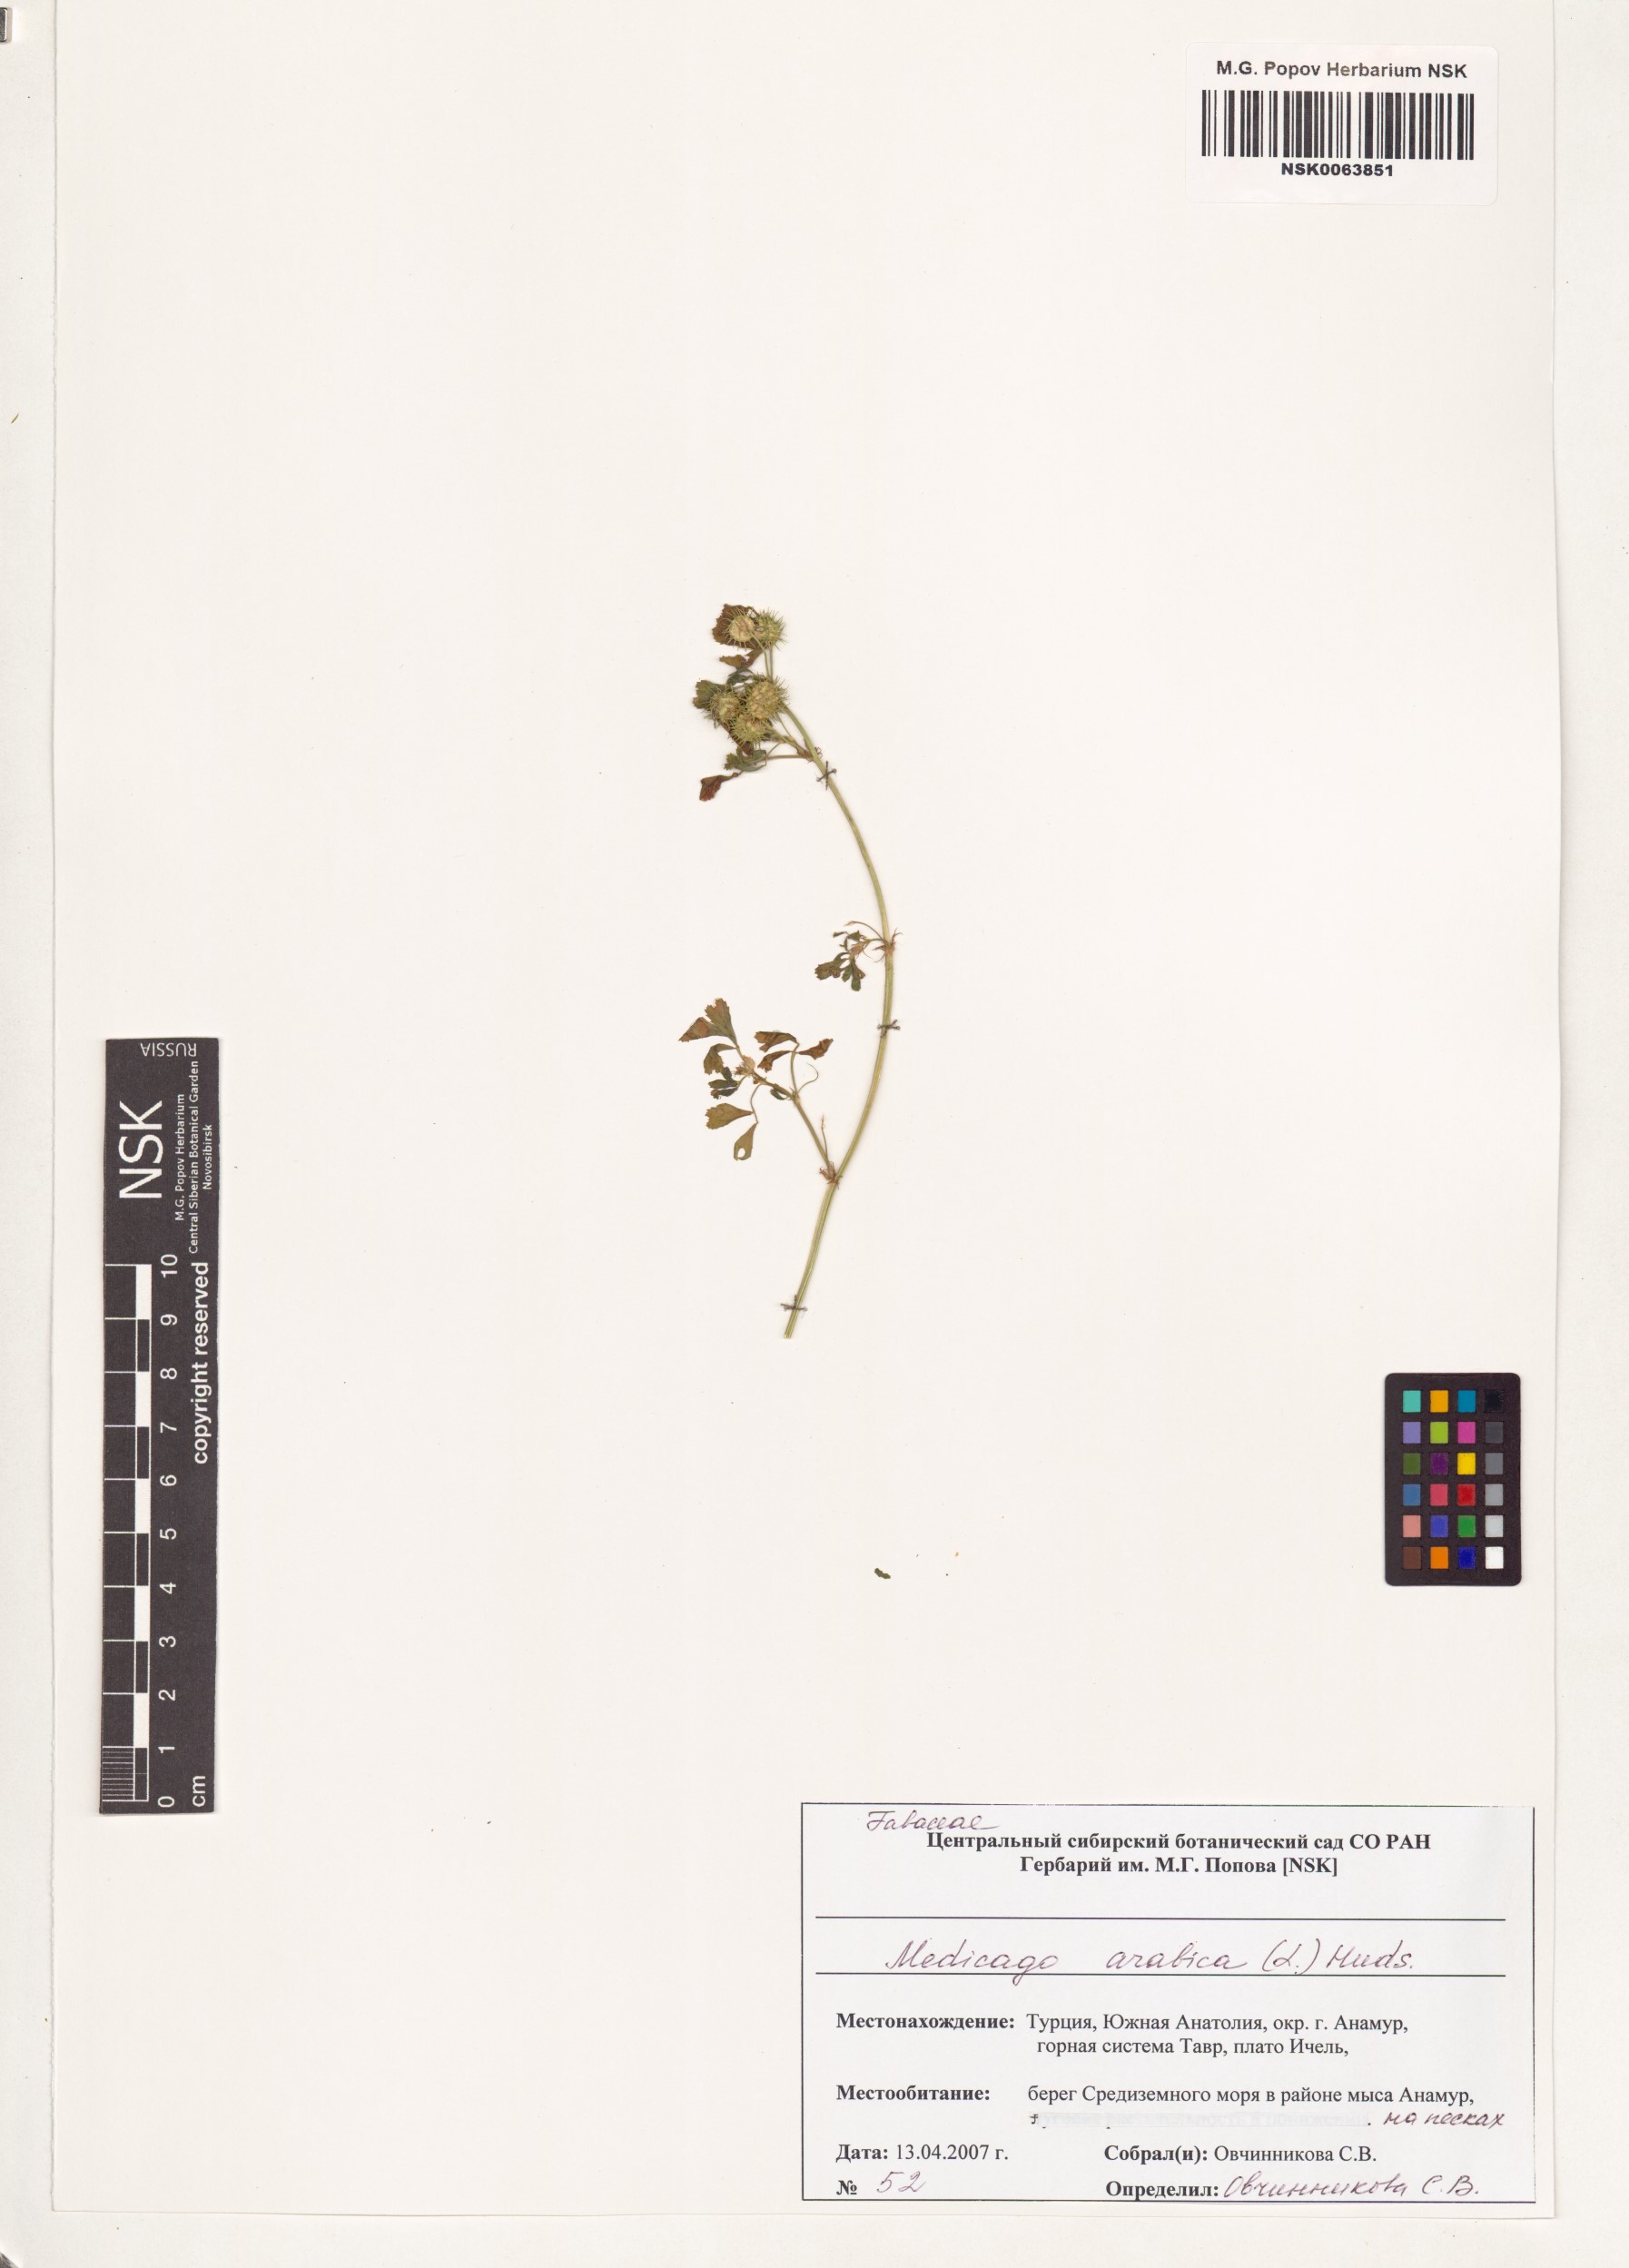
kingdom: Plantae
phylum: Tracheophyta
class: Magnoliopsida
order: Fabales
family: Fabaceae
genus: Medicago
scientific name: Medicago arabica
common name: Spotted medick
